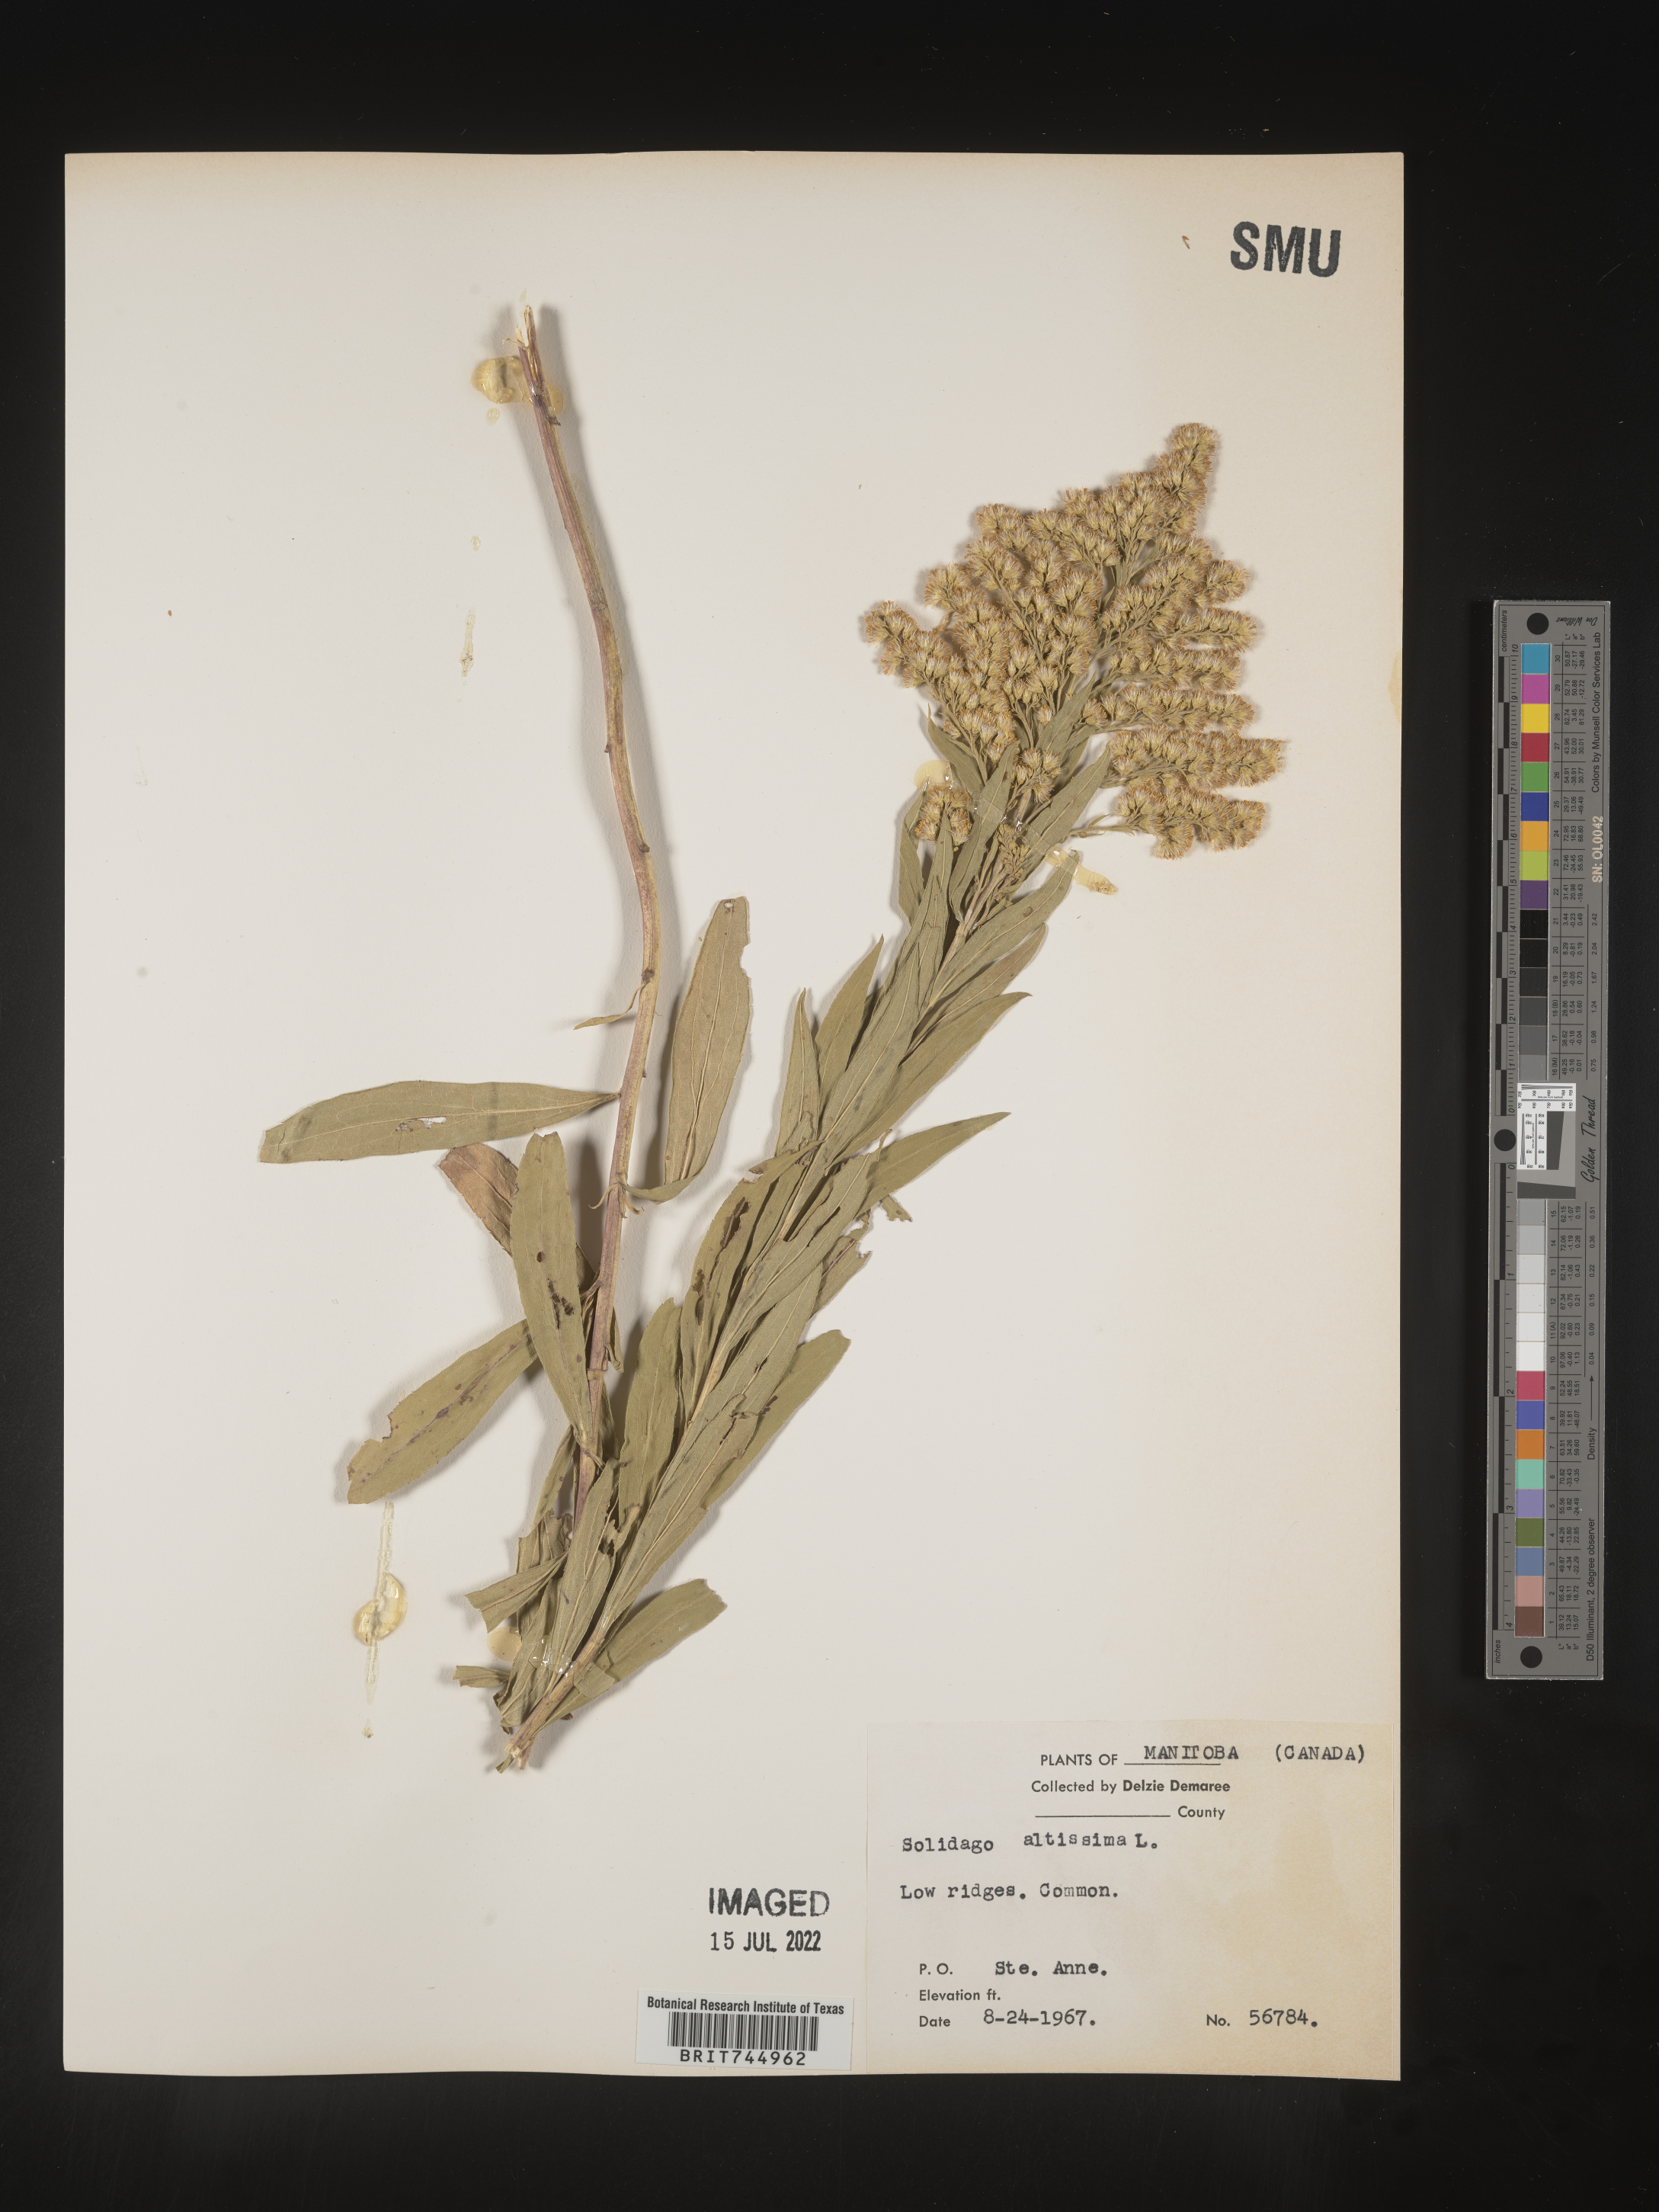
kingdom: Plantae
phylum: Tracheophyta
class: Magnoliopsida
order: Asterales
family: Asteraceae
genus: Solidago
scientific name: Solidago canadensis
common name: Canada goldenrod
